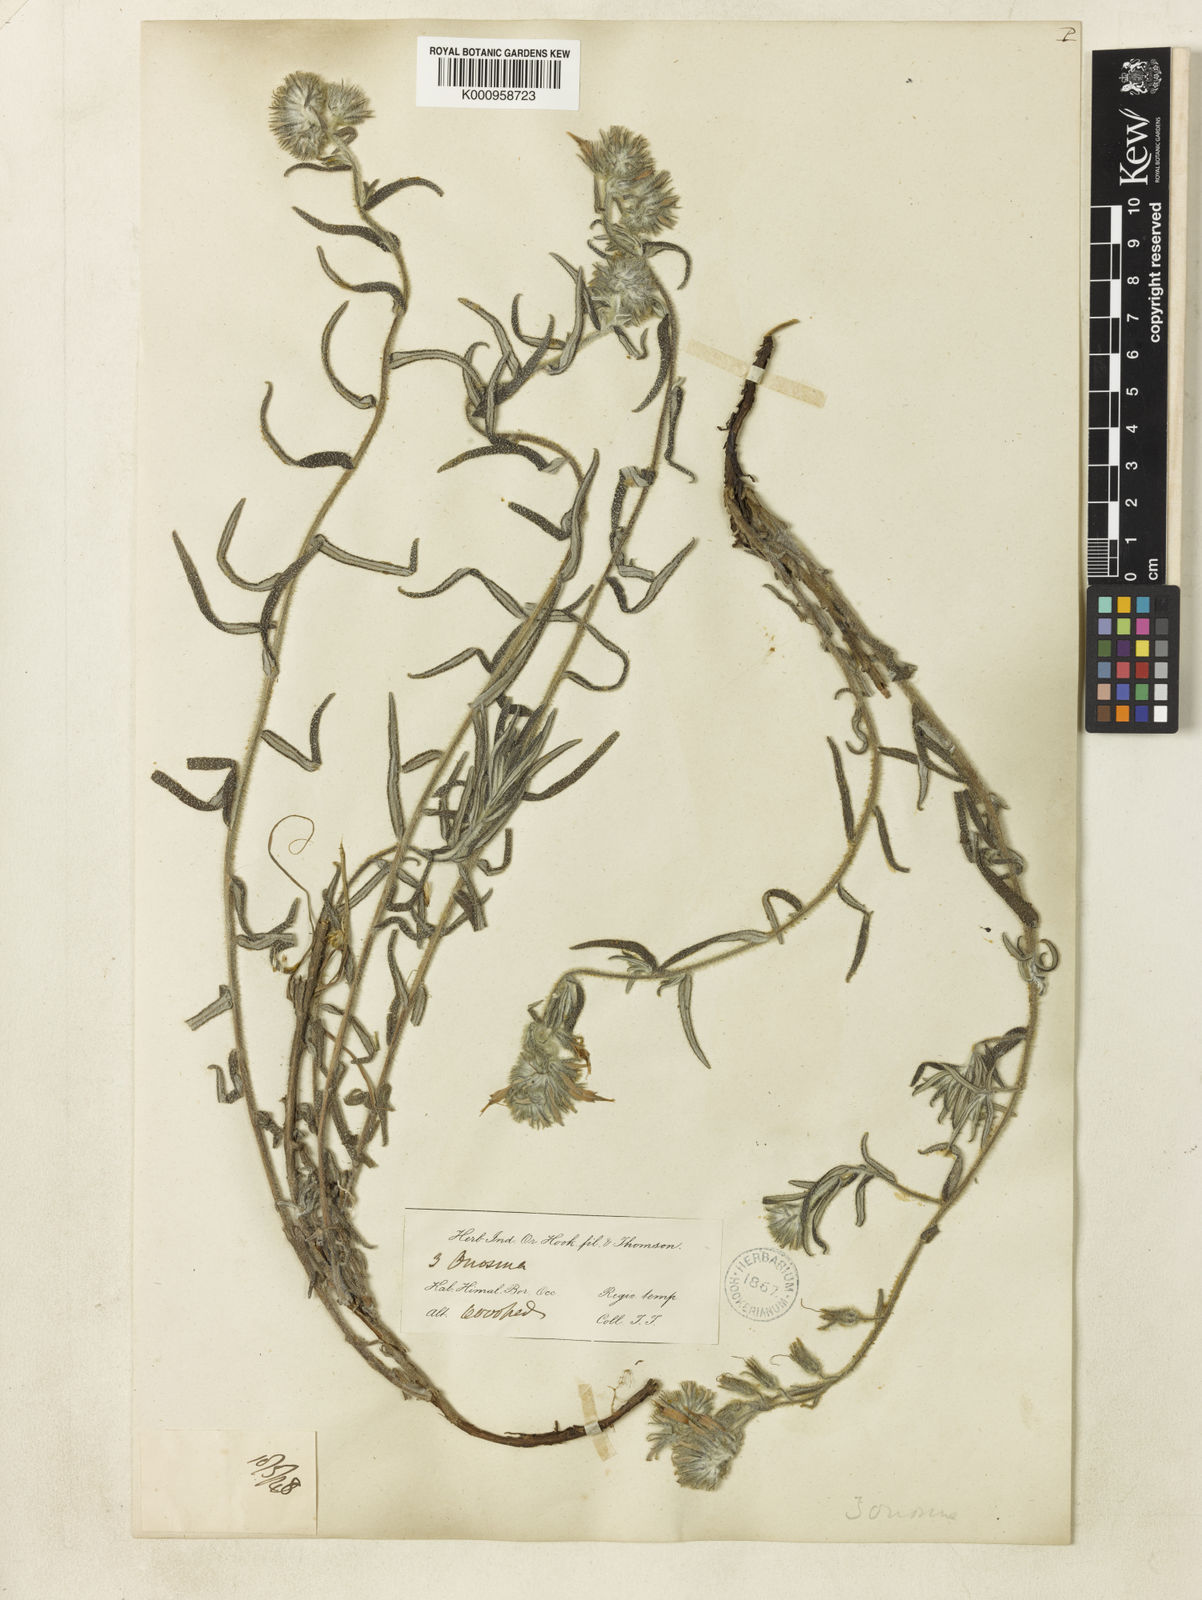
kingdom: Plantae
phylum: Tracheophyta
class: Magnoliopsida
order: Boraginales
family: Boraginaceae
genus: Maharanga
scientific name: Maharanga thomsonii
